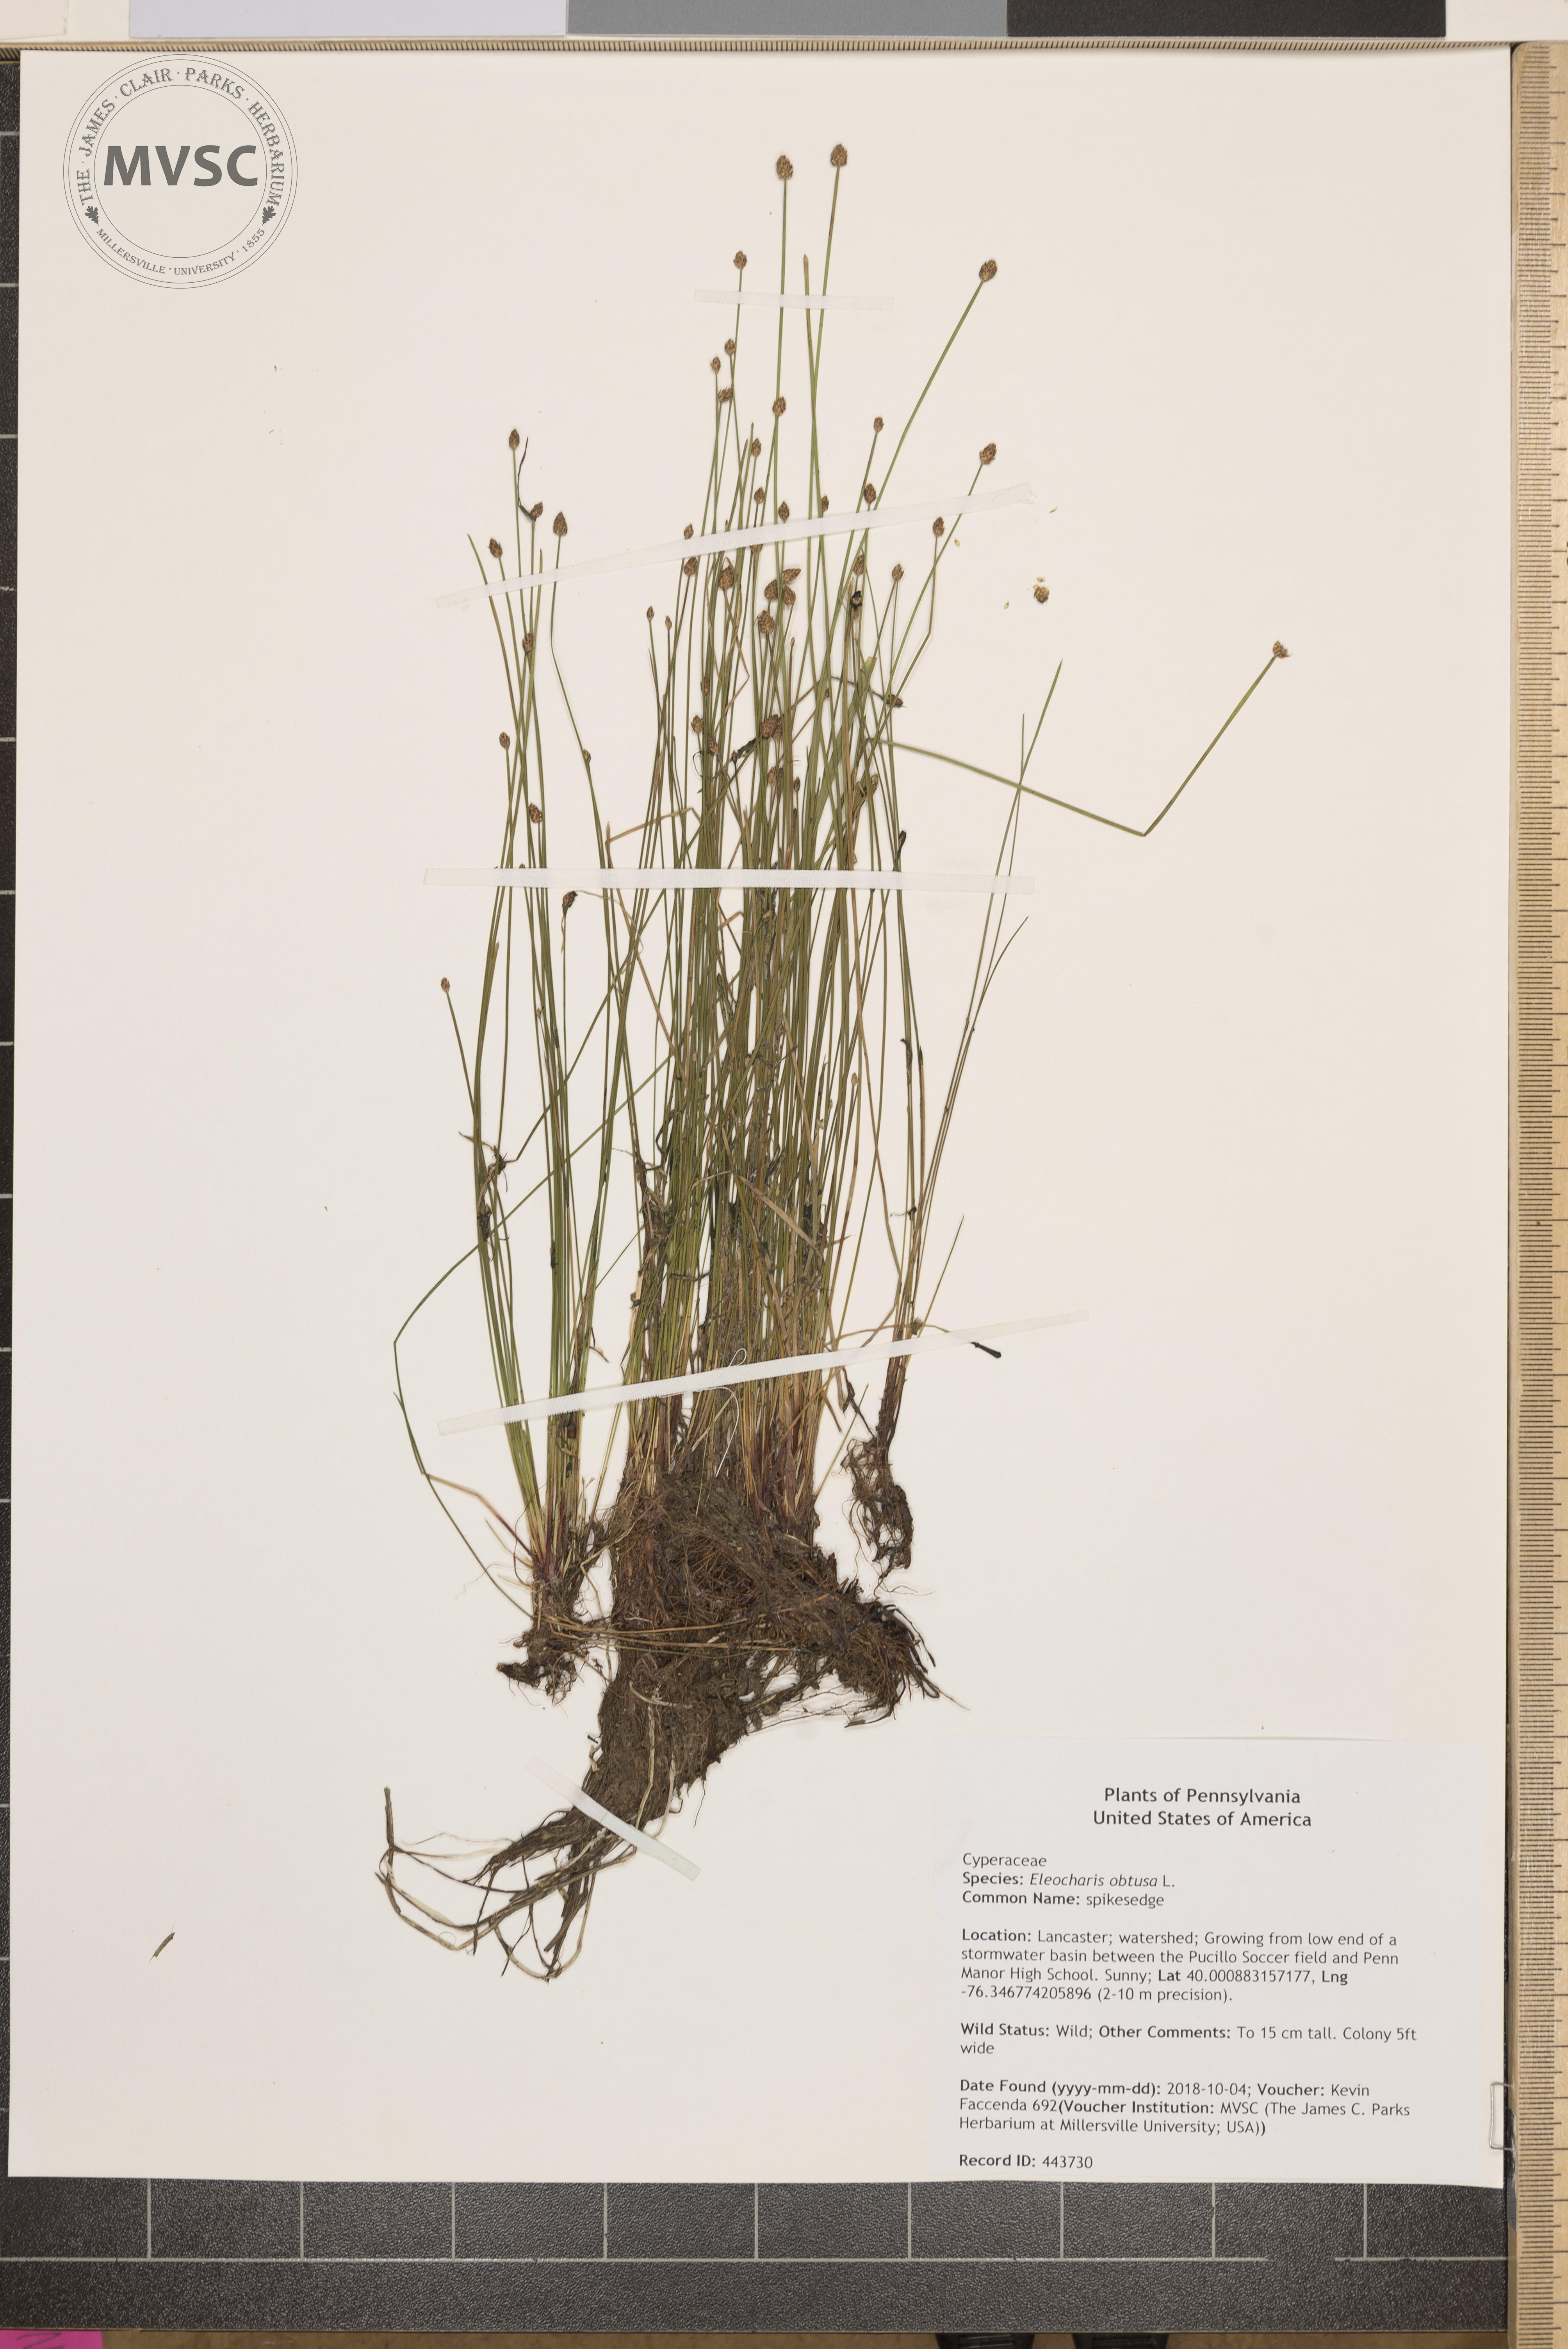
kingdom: Plantae
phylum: Tracheophyta
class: Liliopsida
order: Poales
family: Cyperaceae
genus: Eleocharis
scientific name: Eleocharis obtusa
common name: spikesedge
